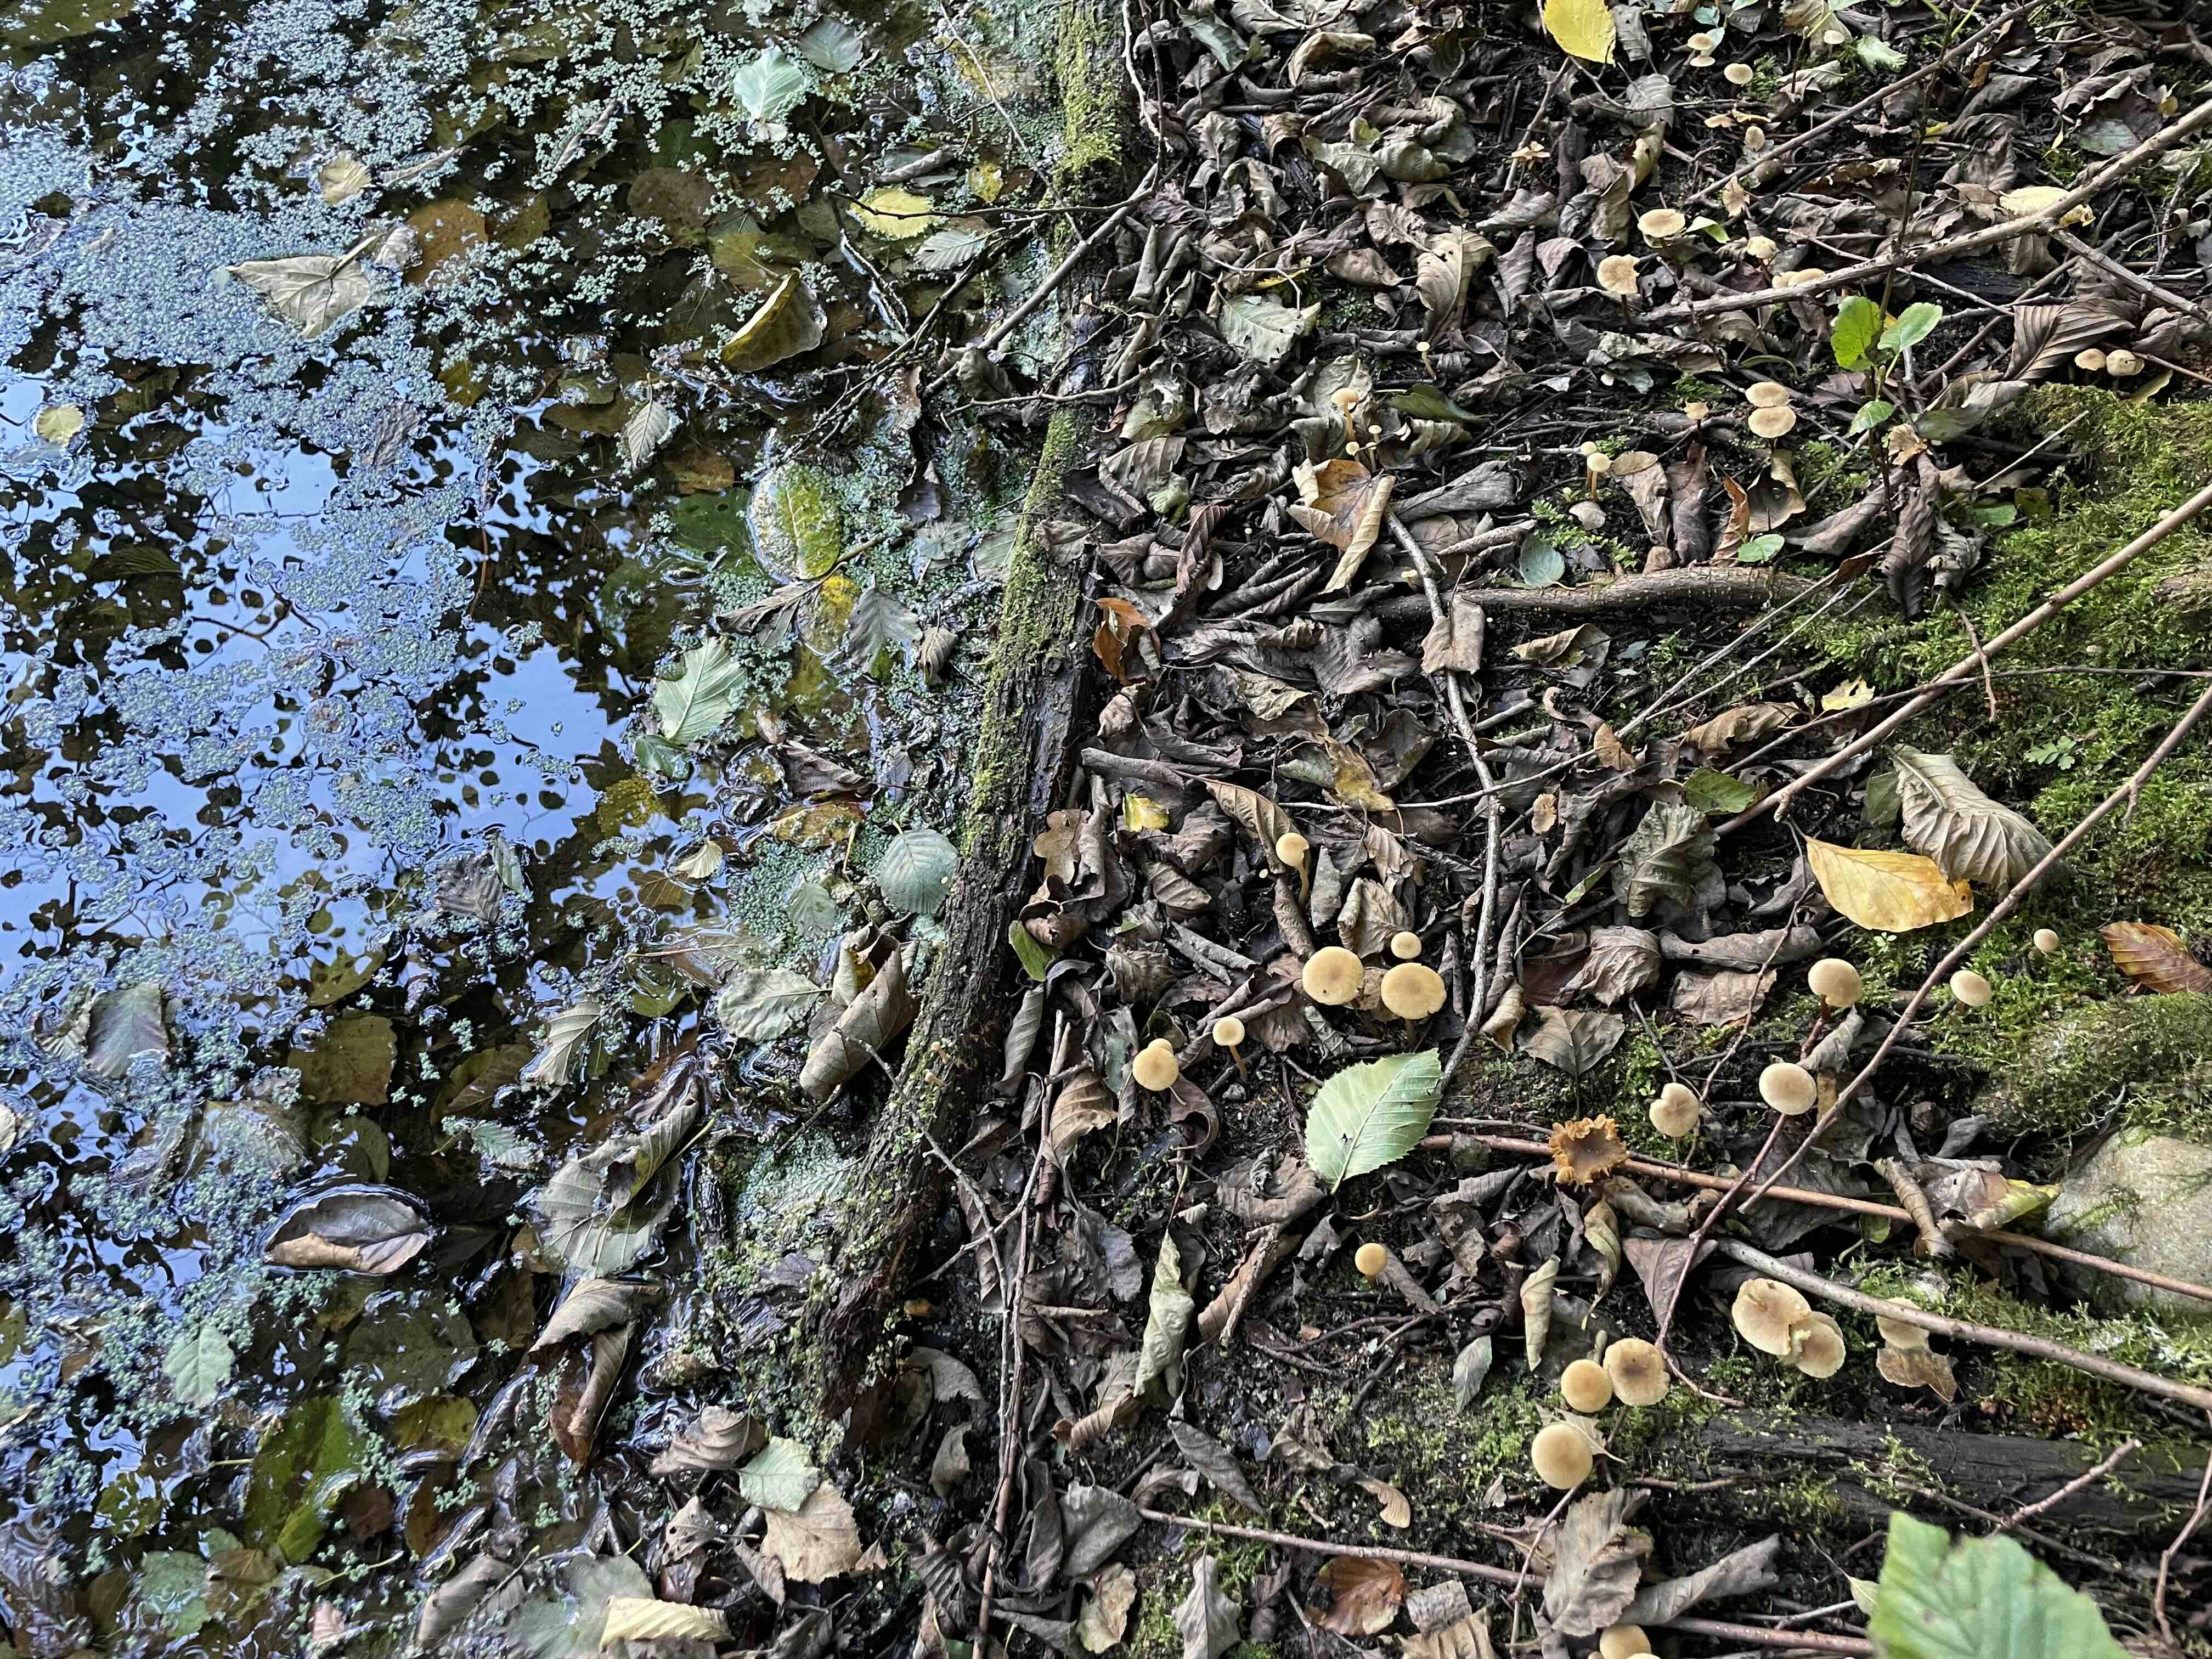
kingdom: Fungi
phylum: Basidiomycota
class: Agaricomycetes
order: Agaricales
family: Hymenogastraceae
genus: Naucoria
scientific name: Naucoria escharioides
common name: lys elle-knaphat
